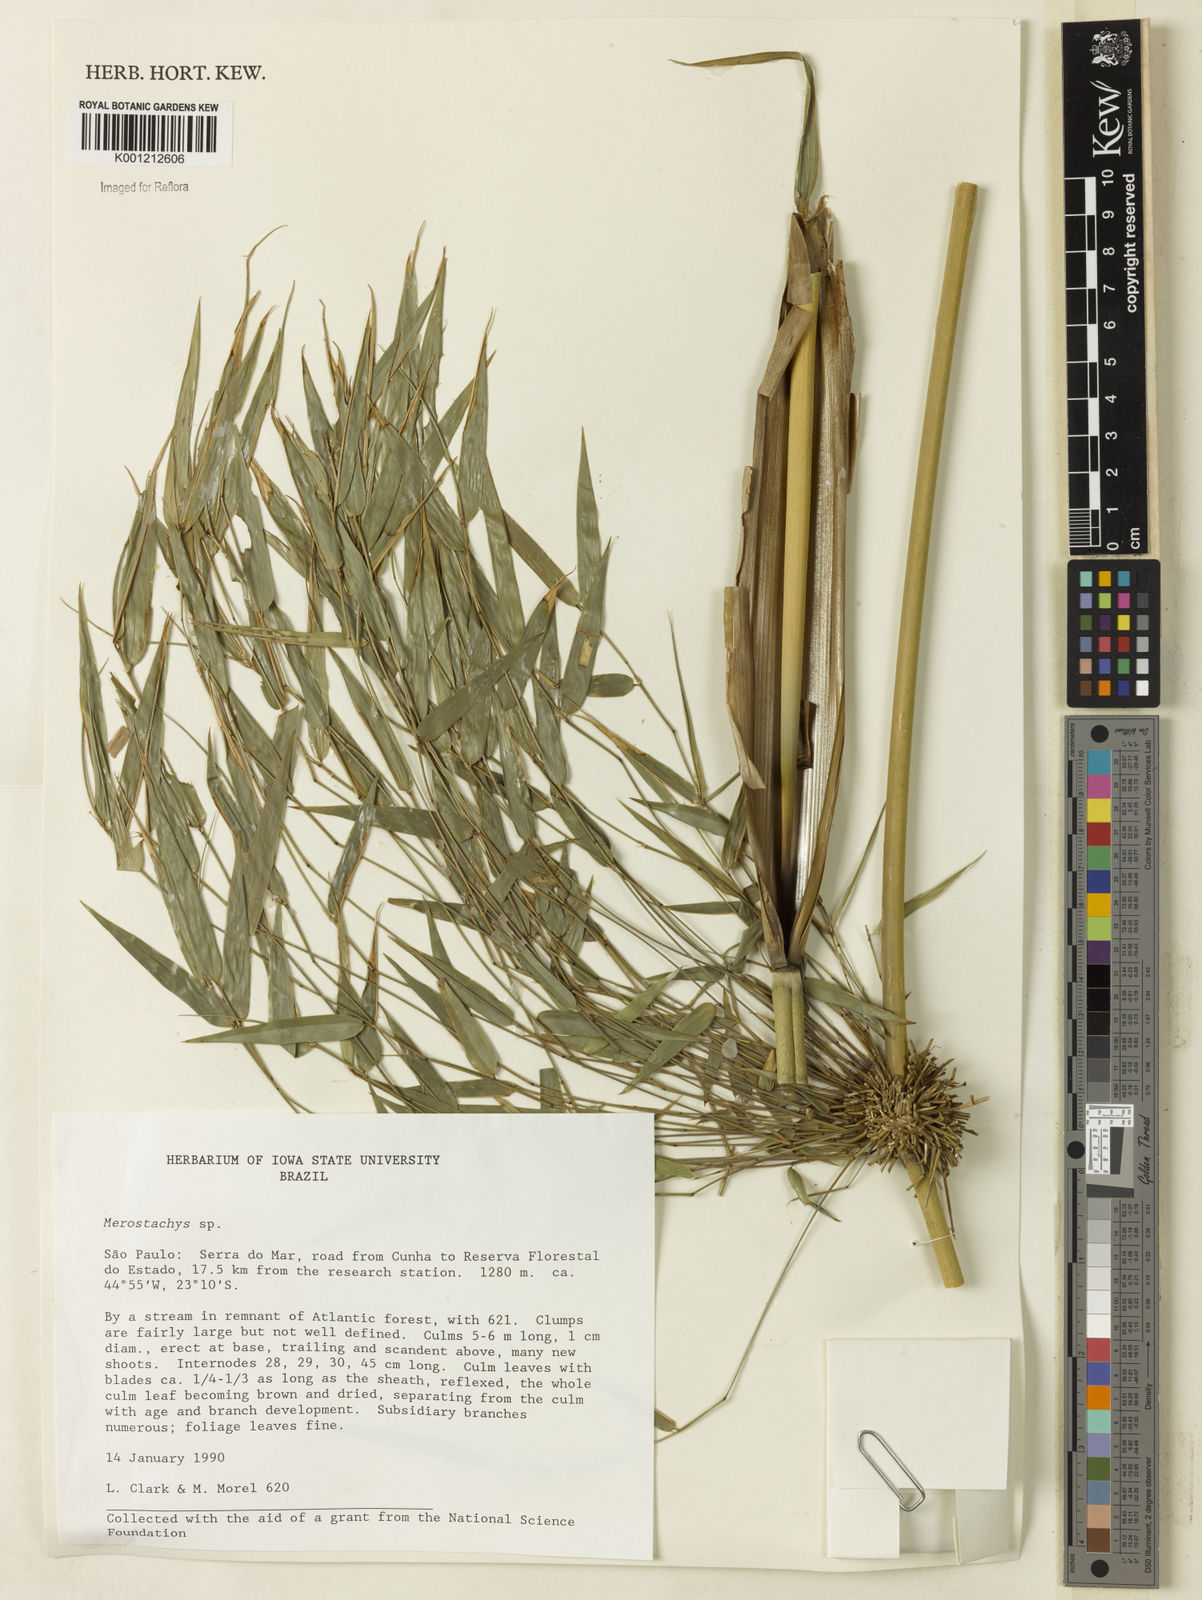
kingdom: Plantae
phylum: Tracheophyta
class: Liliopsida
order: Poales
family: Poaceae
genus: Merostachys
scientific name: Merostachys
